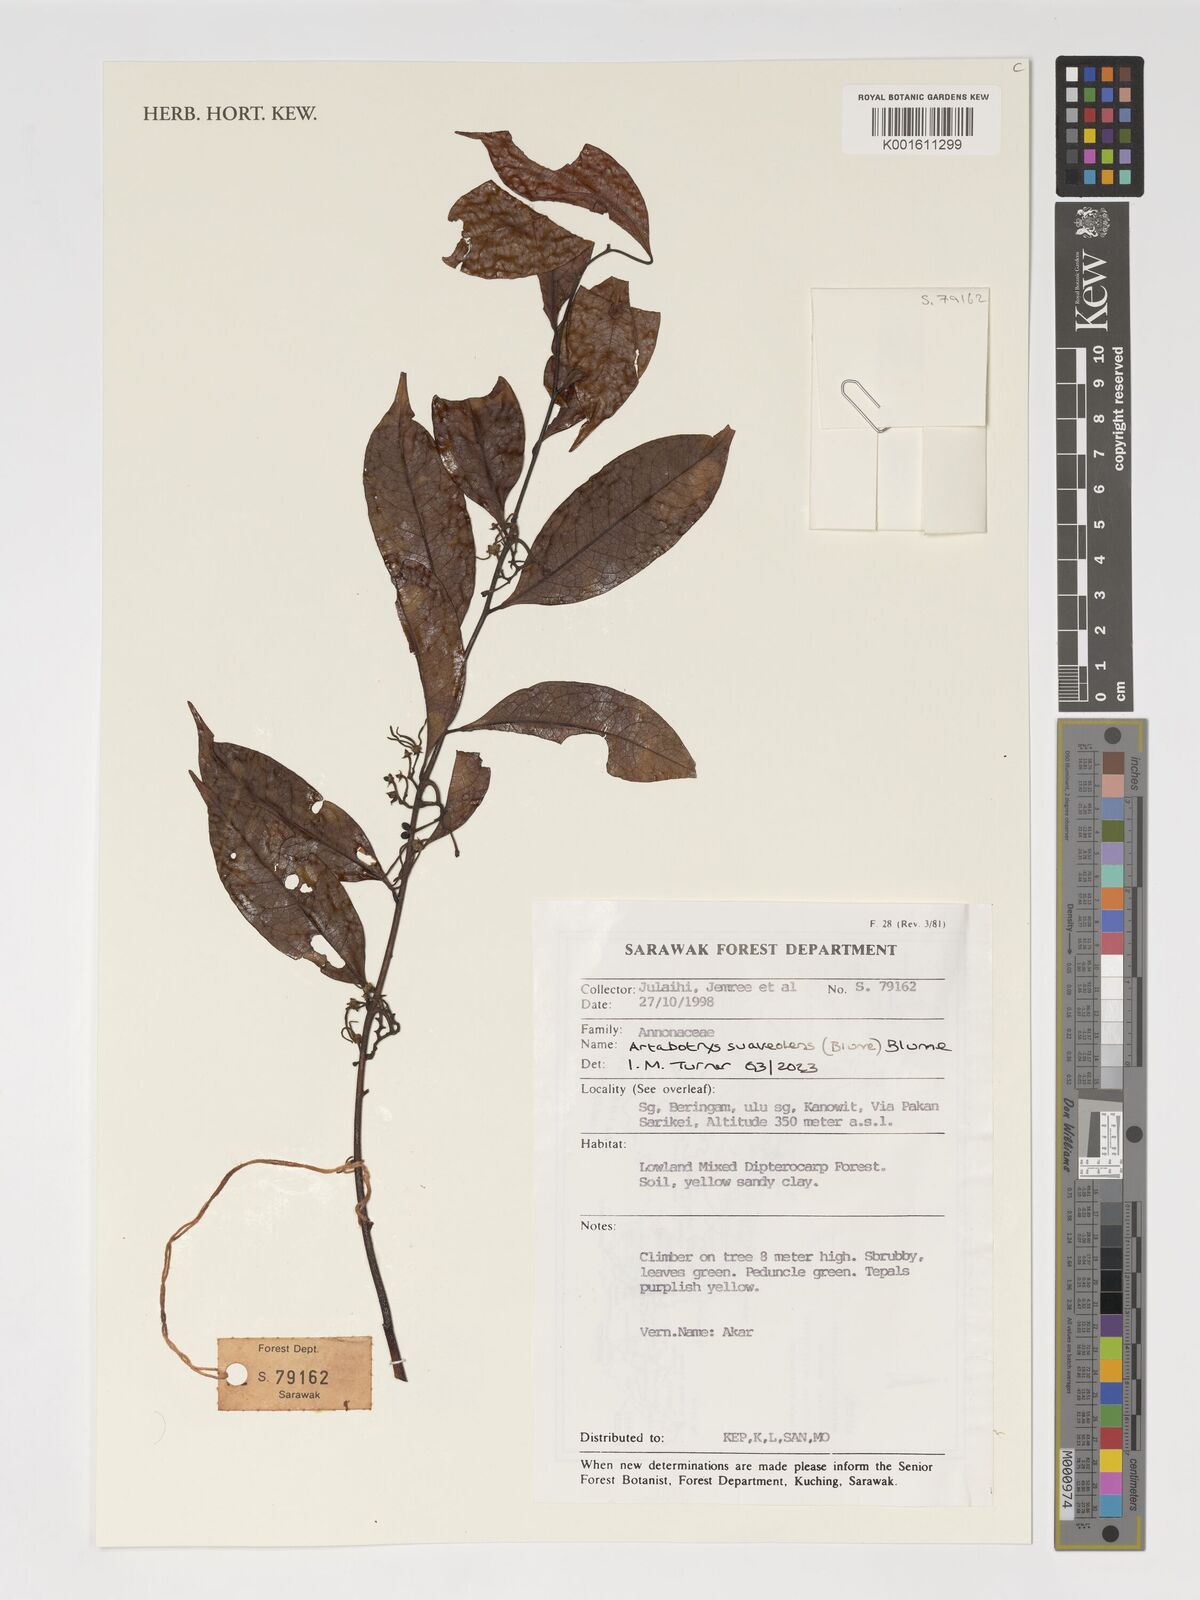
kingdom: Plantae
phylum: Tracheophyta
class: Magnoliopsida
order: Magnoliales
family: Annonaceae
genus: Artabotrys
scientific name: Artabotrys suaveolens
